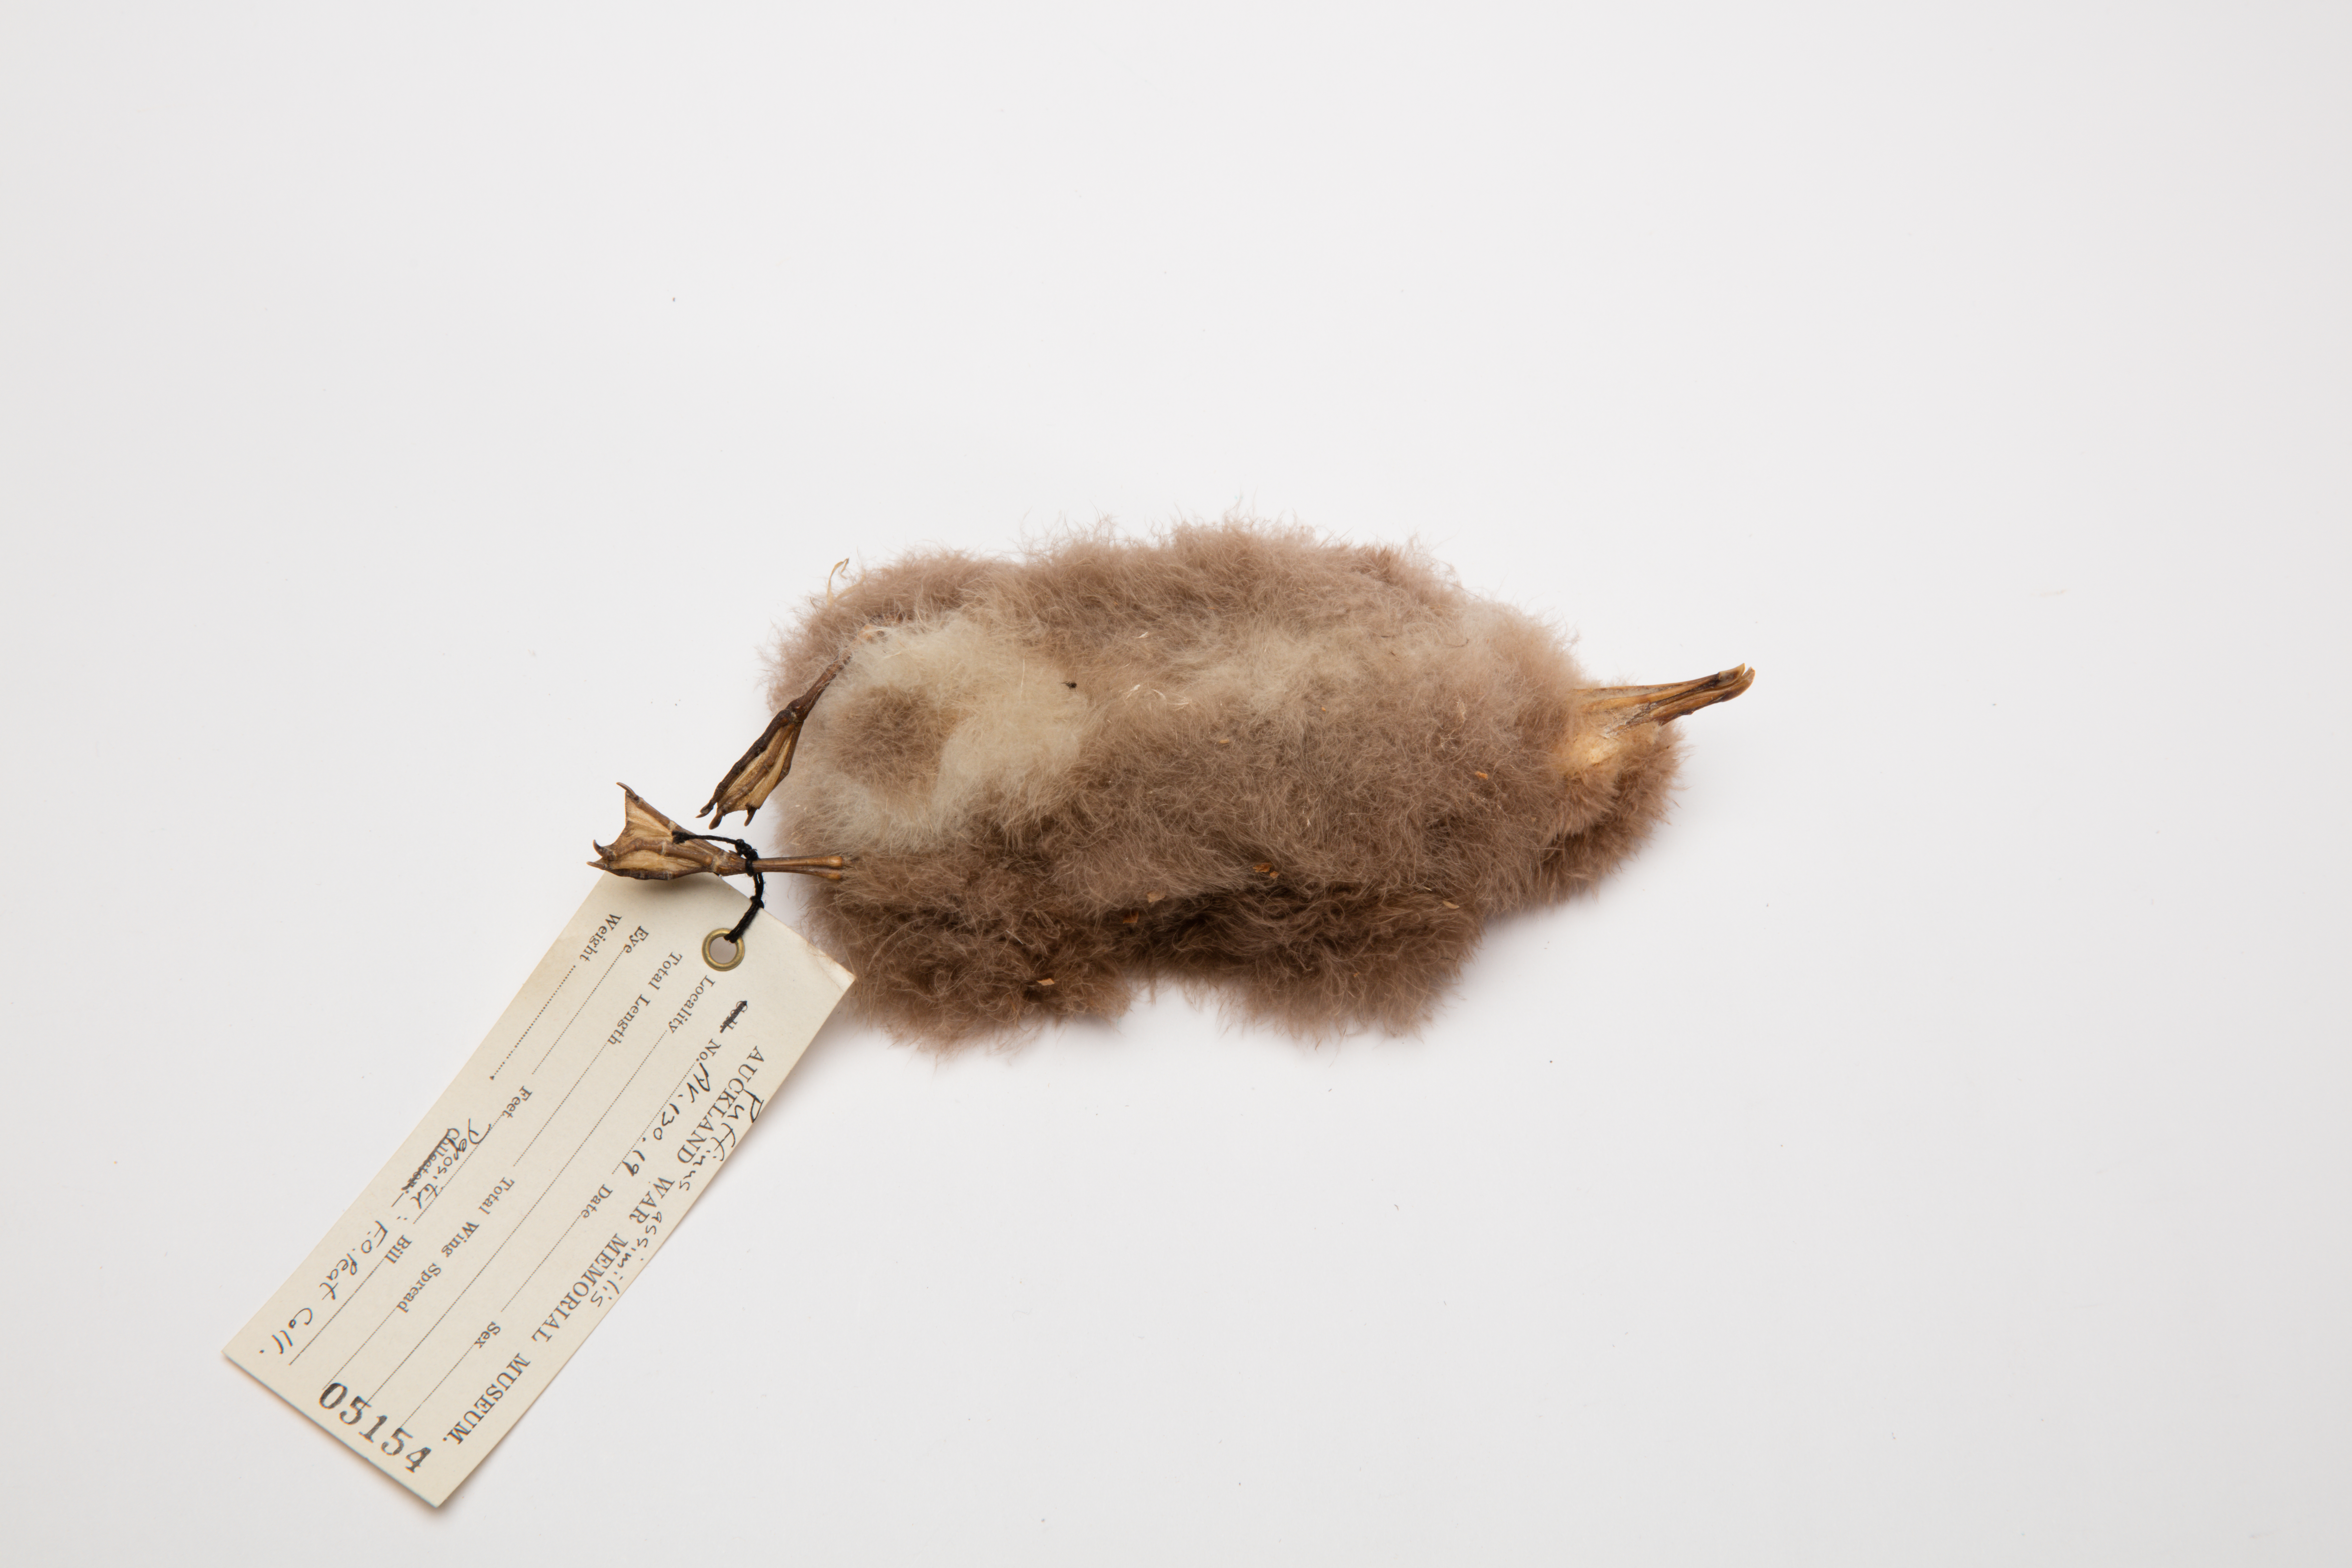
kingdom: Animalia
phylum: Chordata
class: Aves
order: Procellariiformes
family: Procellariidae
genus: Puffinus
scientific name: Puffinus assimilis
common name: Little shearwater
